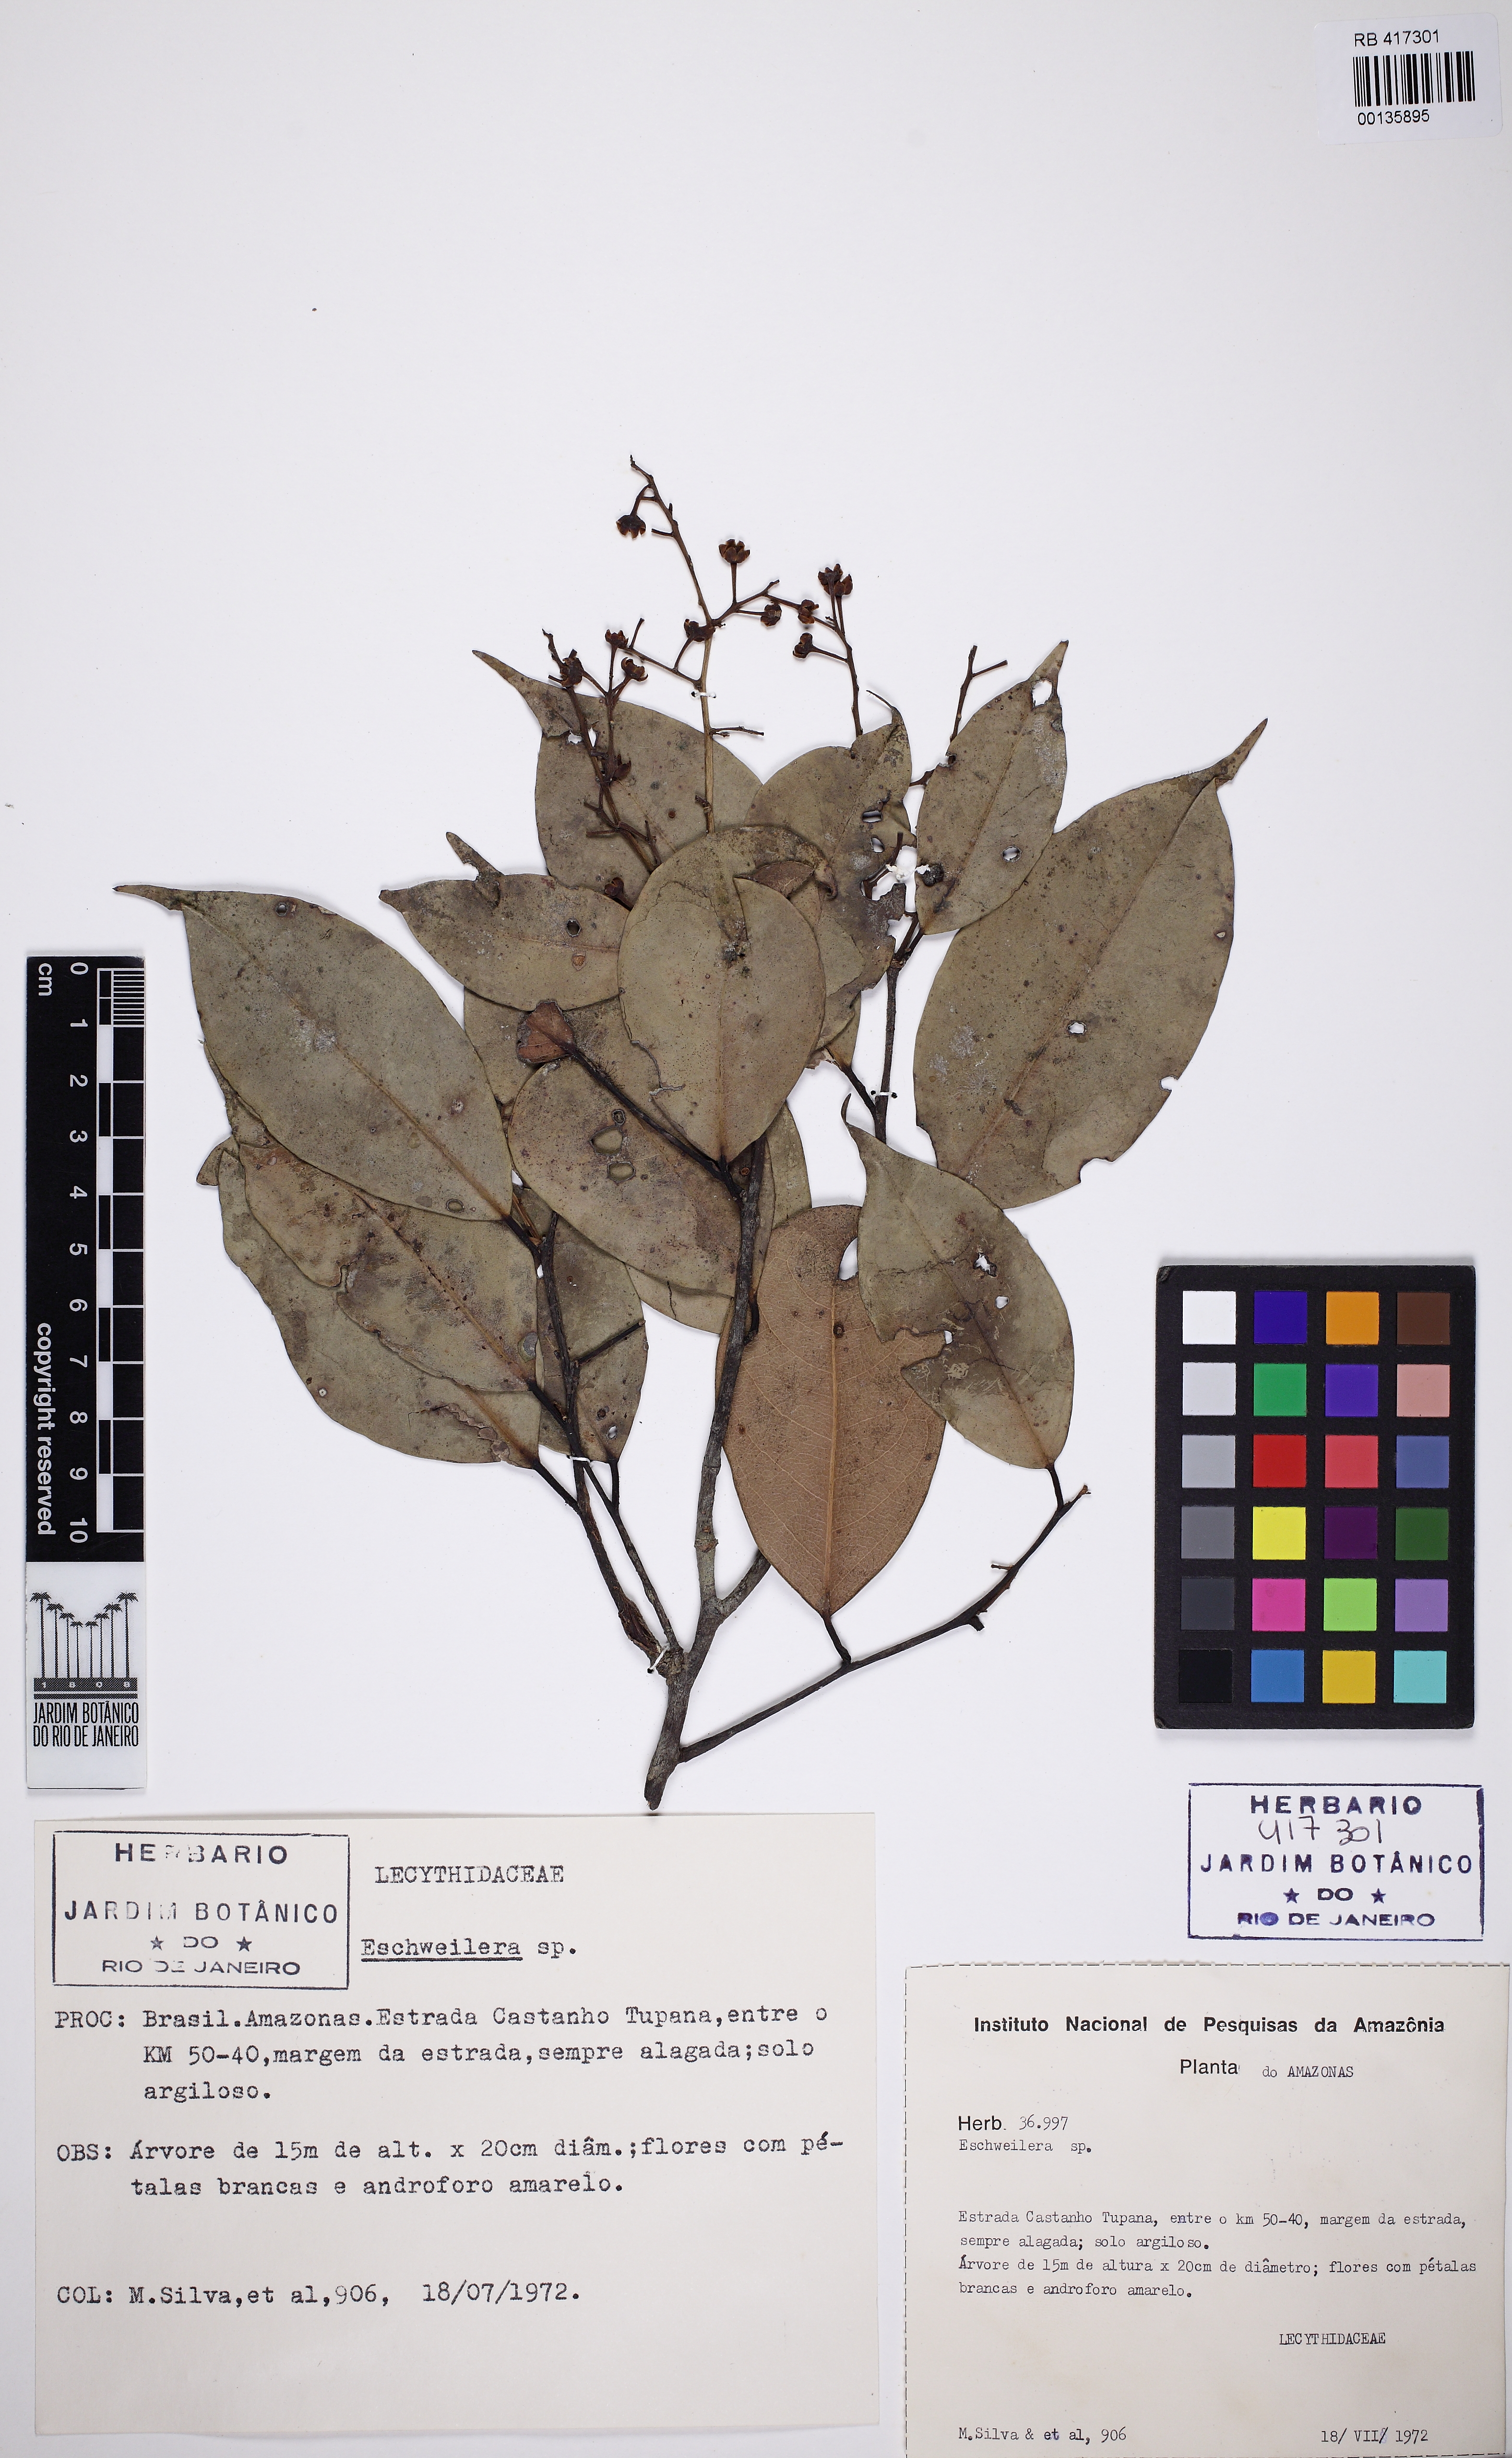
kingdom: Plantae
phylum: Tracheophyta
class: Magnoliopsida
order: Ericales
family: Lecythidaceae
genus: Eschweilera
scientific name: Eschweilera micrantha
